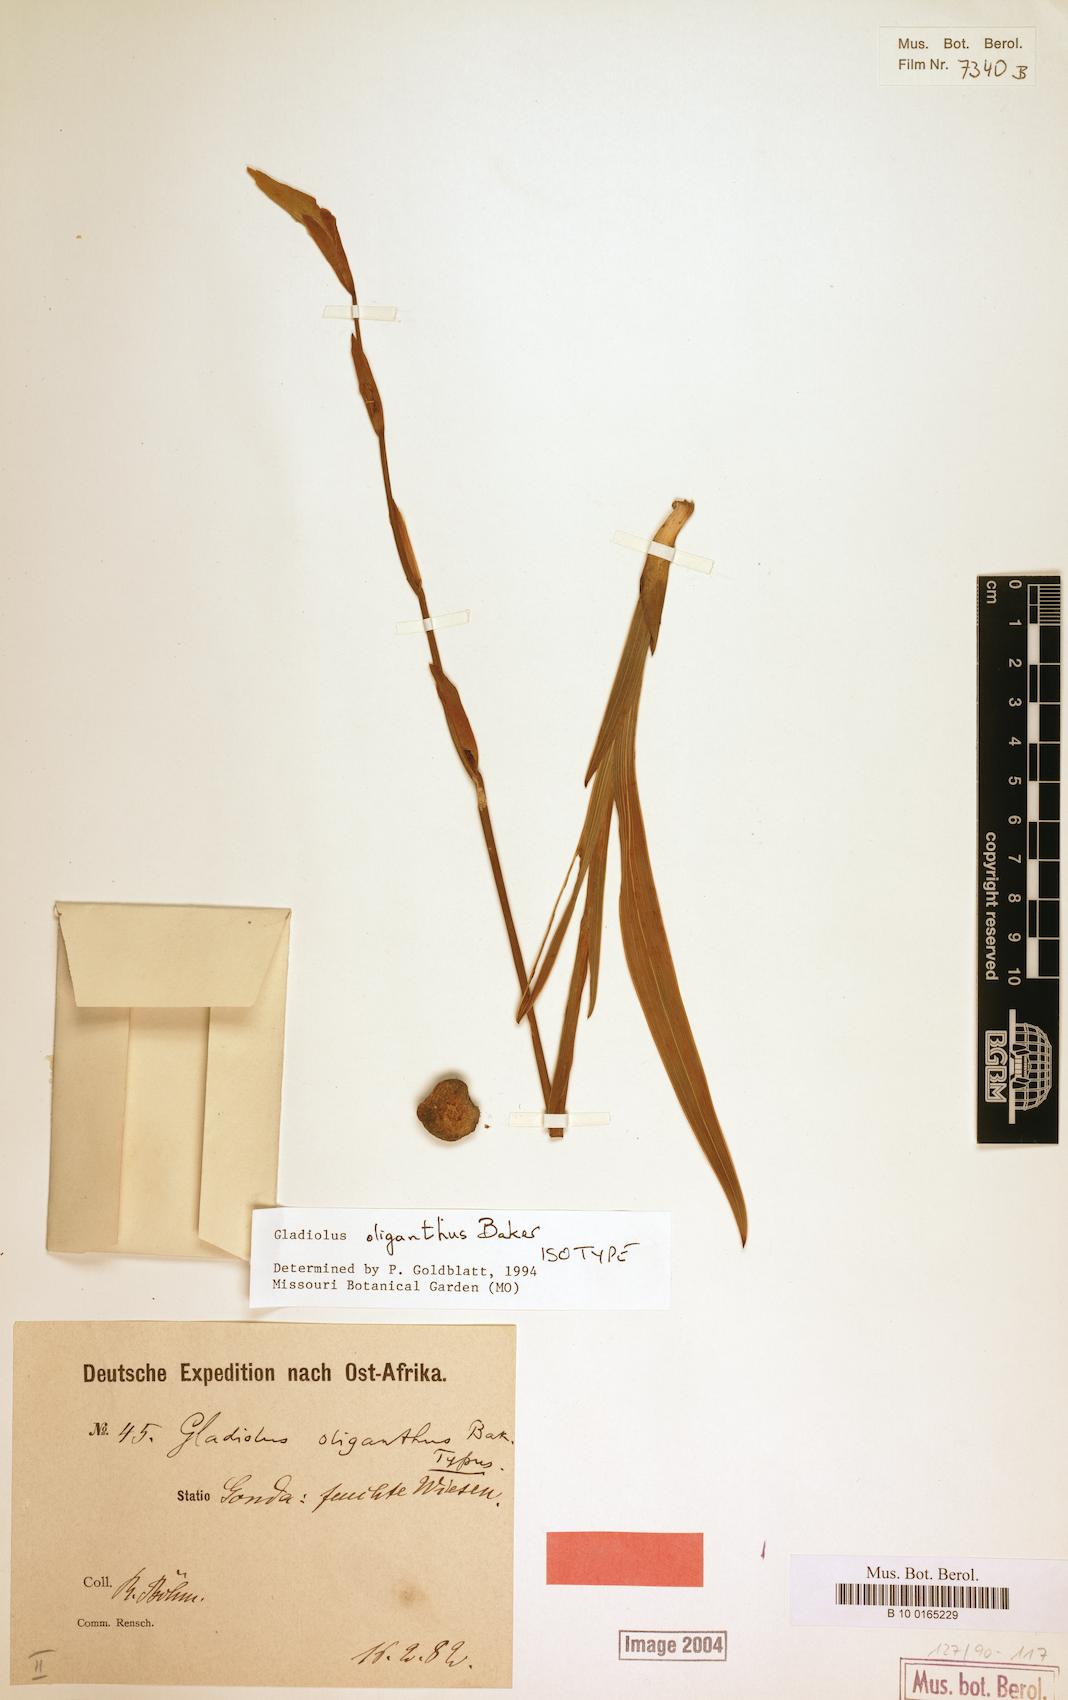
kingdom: Plantae
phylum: Tracheophyta
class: Liliopsida
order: Asparagales
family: Iridaceae
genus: Gladiolus
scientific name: Gladiolus oliganthus
